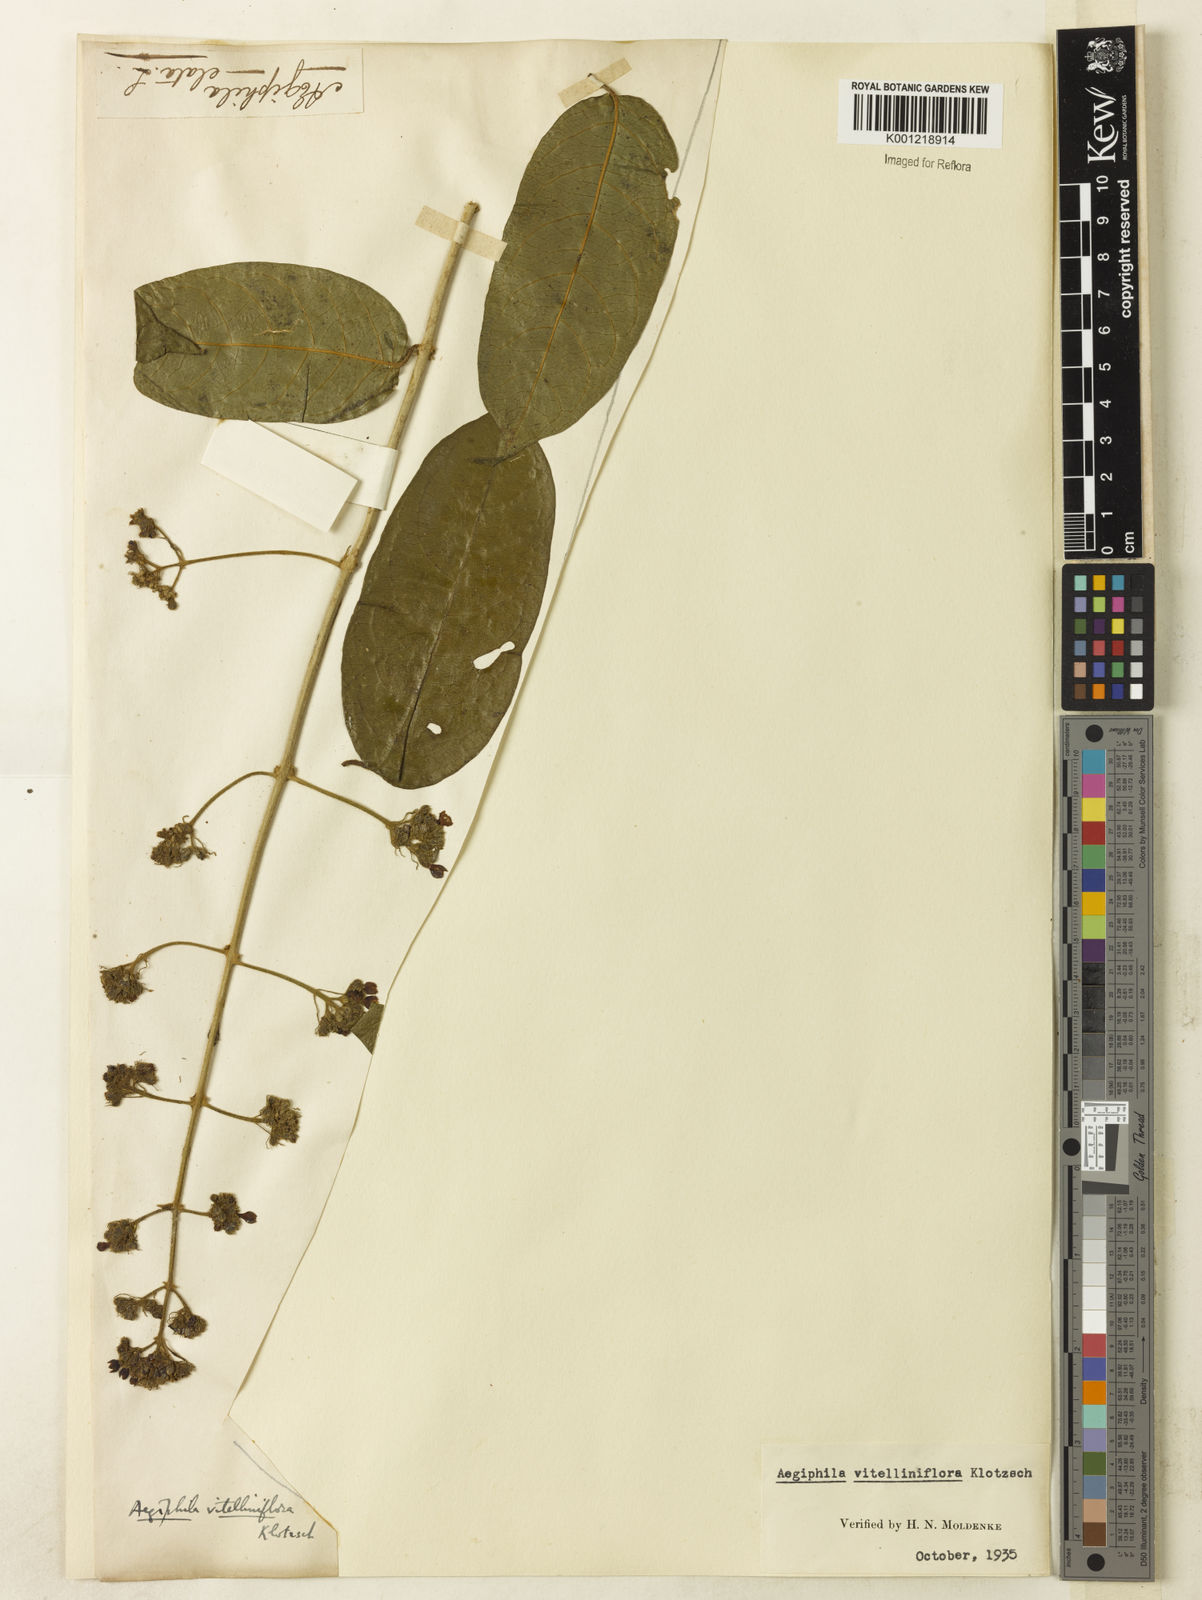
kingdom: Plantae
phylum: Tracheophyta
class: Magnoliopsida
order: Lamiales
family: Lamiaceae
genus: Aegiphila
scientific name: Aegiphila
